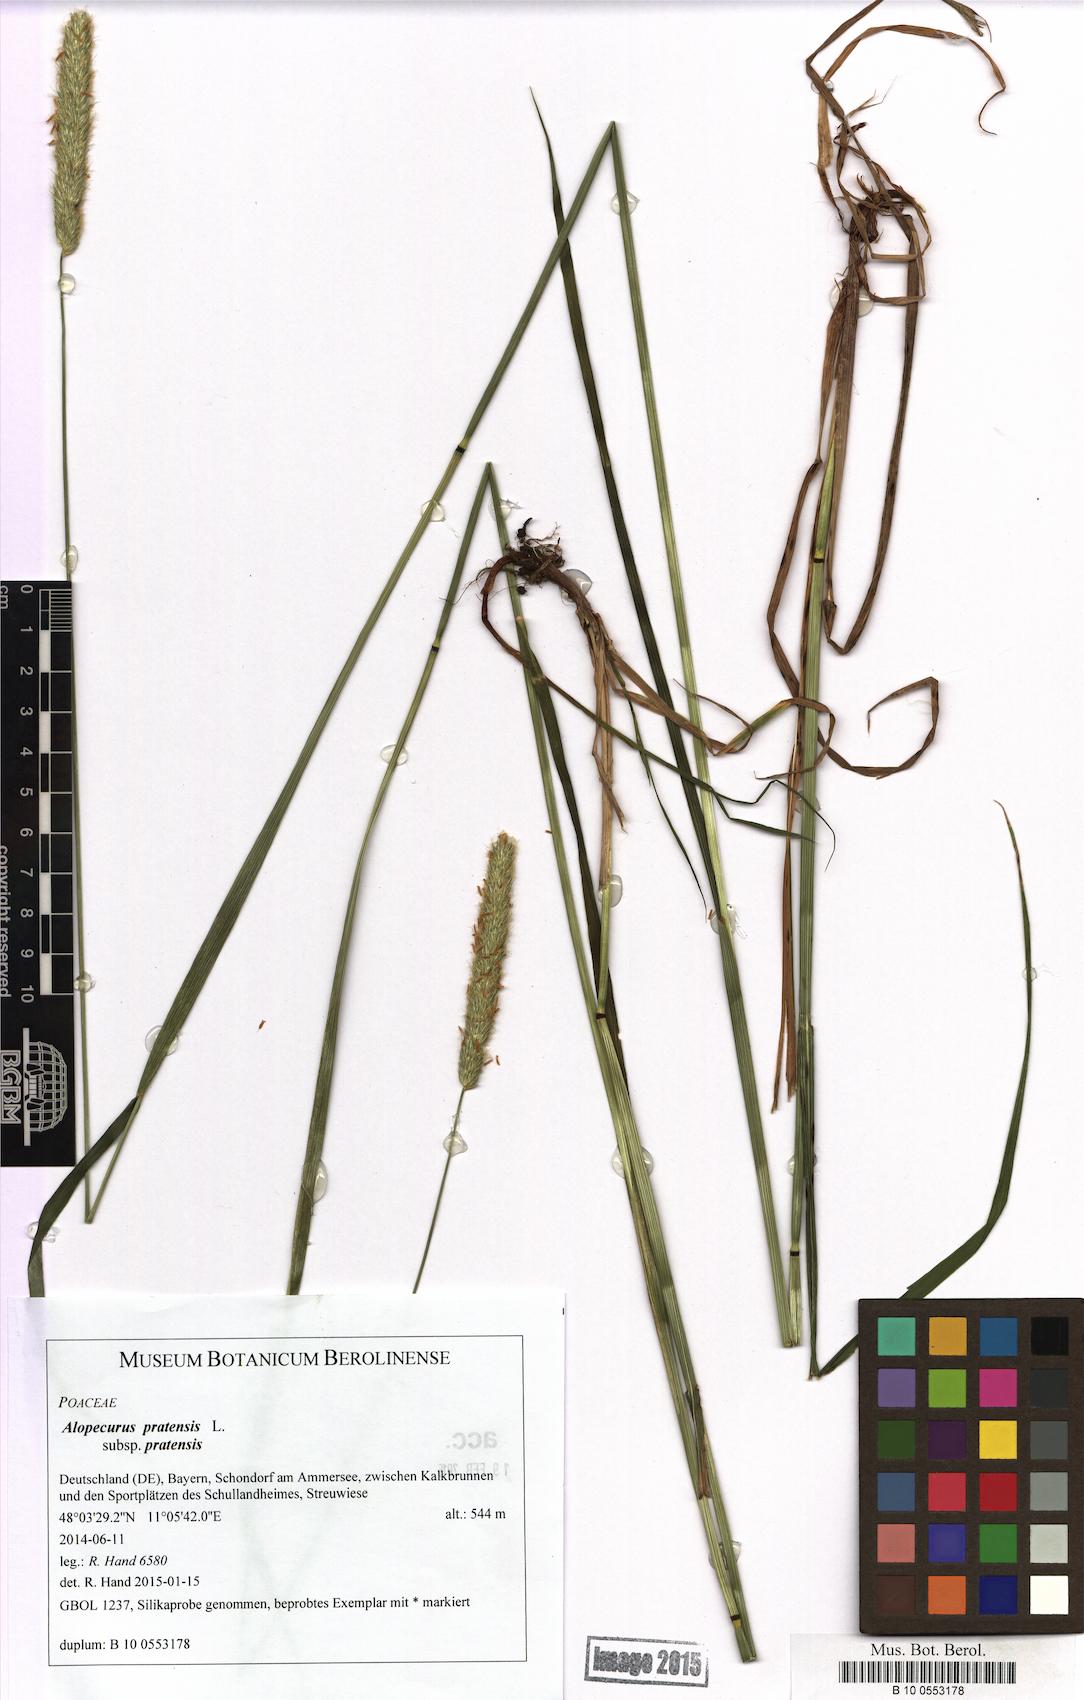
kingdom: Plantae
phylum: Tracheophyta
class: Liliopsida
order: Poales
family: Poaceae
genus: Alopecurus
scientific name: Alopecurus pratensis
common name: Meadow foxtail
